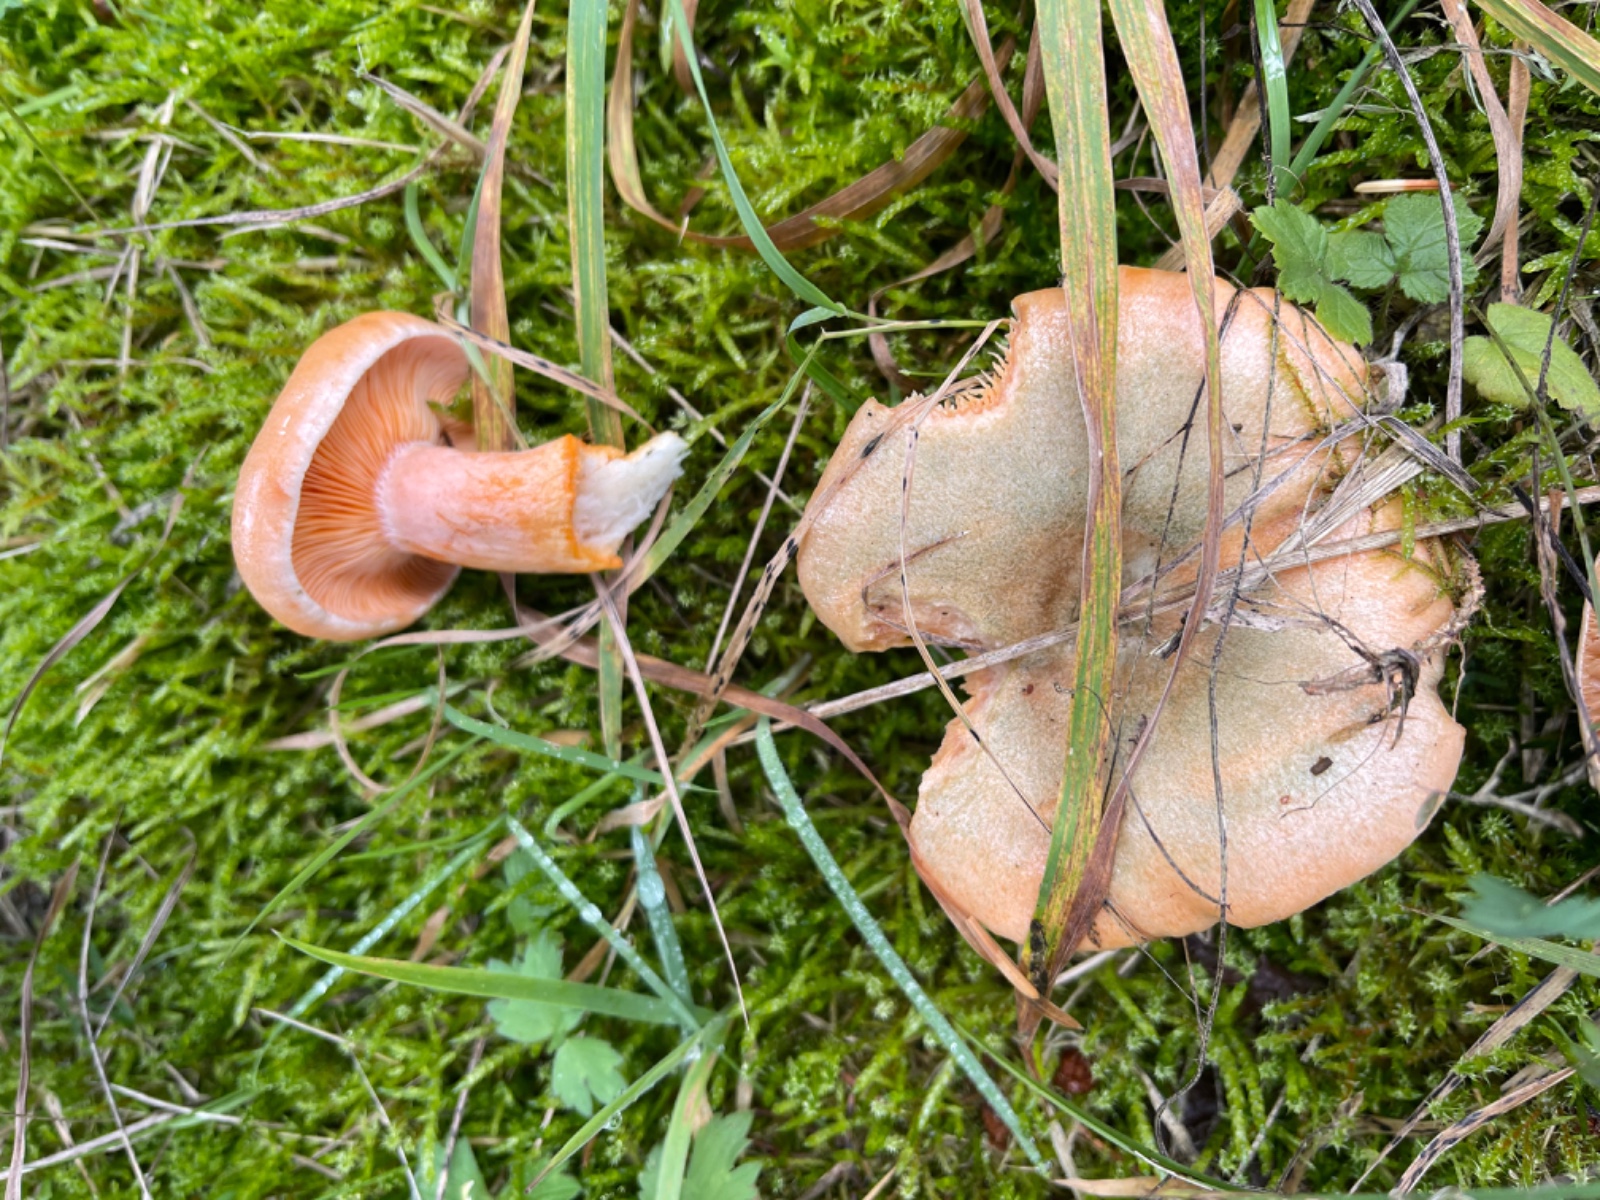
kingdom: Fungi
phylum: Basidiomycota
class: Agaricomycetes
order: Russulales
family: Russulaceae
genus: Lactarius
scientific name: Lactarius deterrimus
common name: gran-mælkehat
